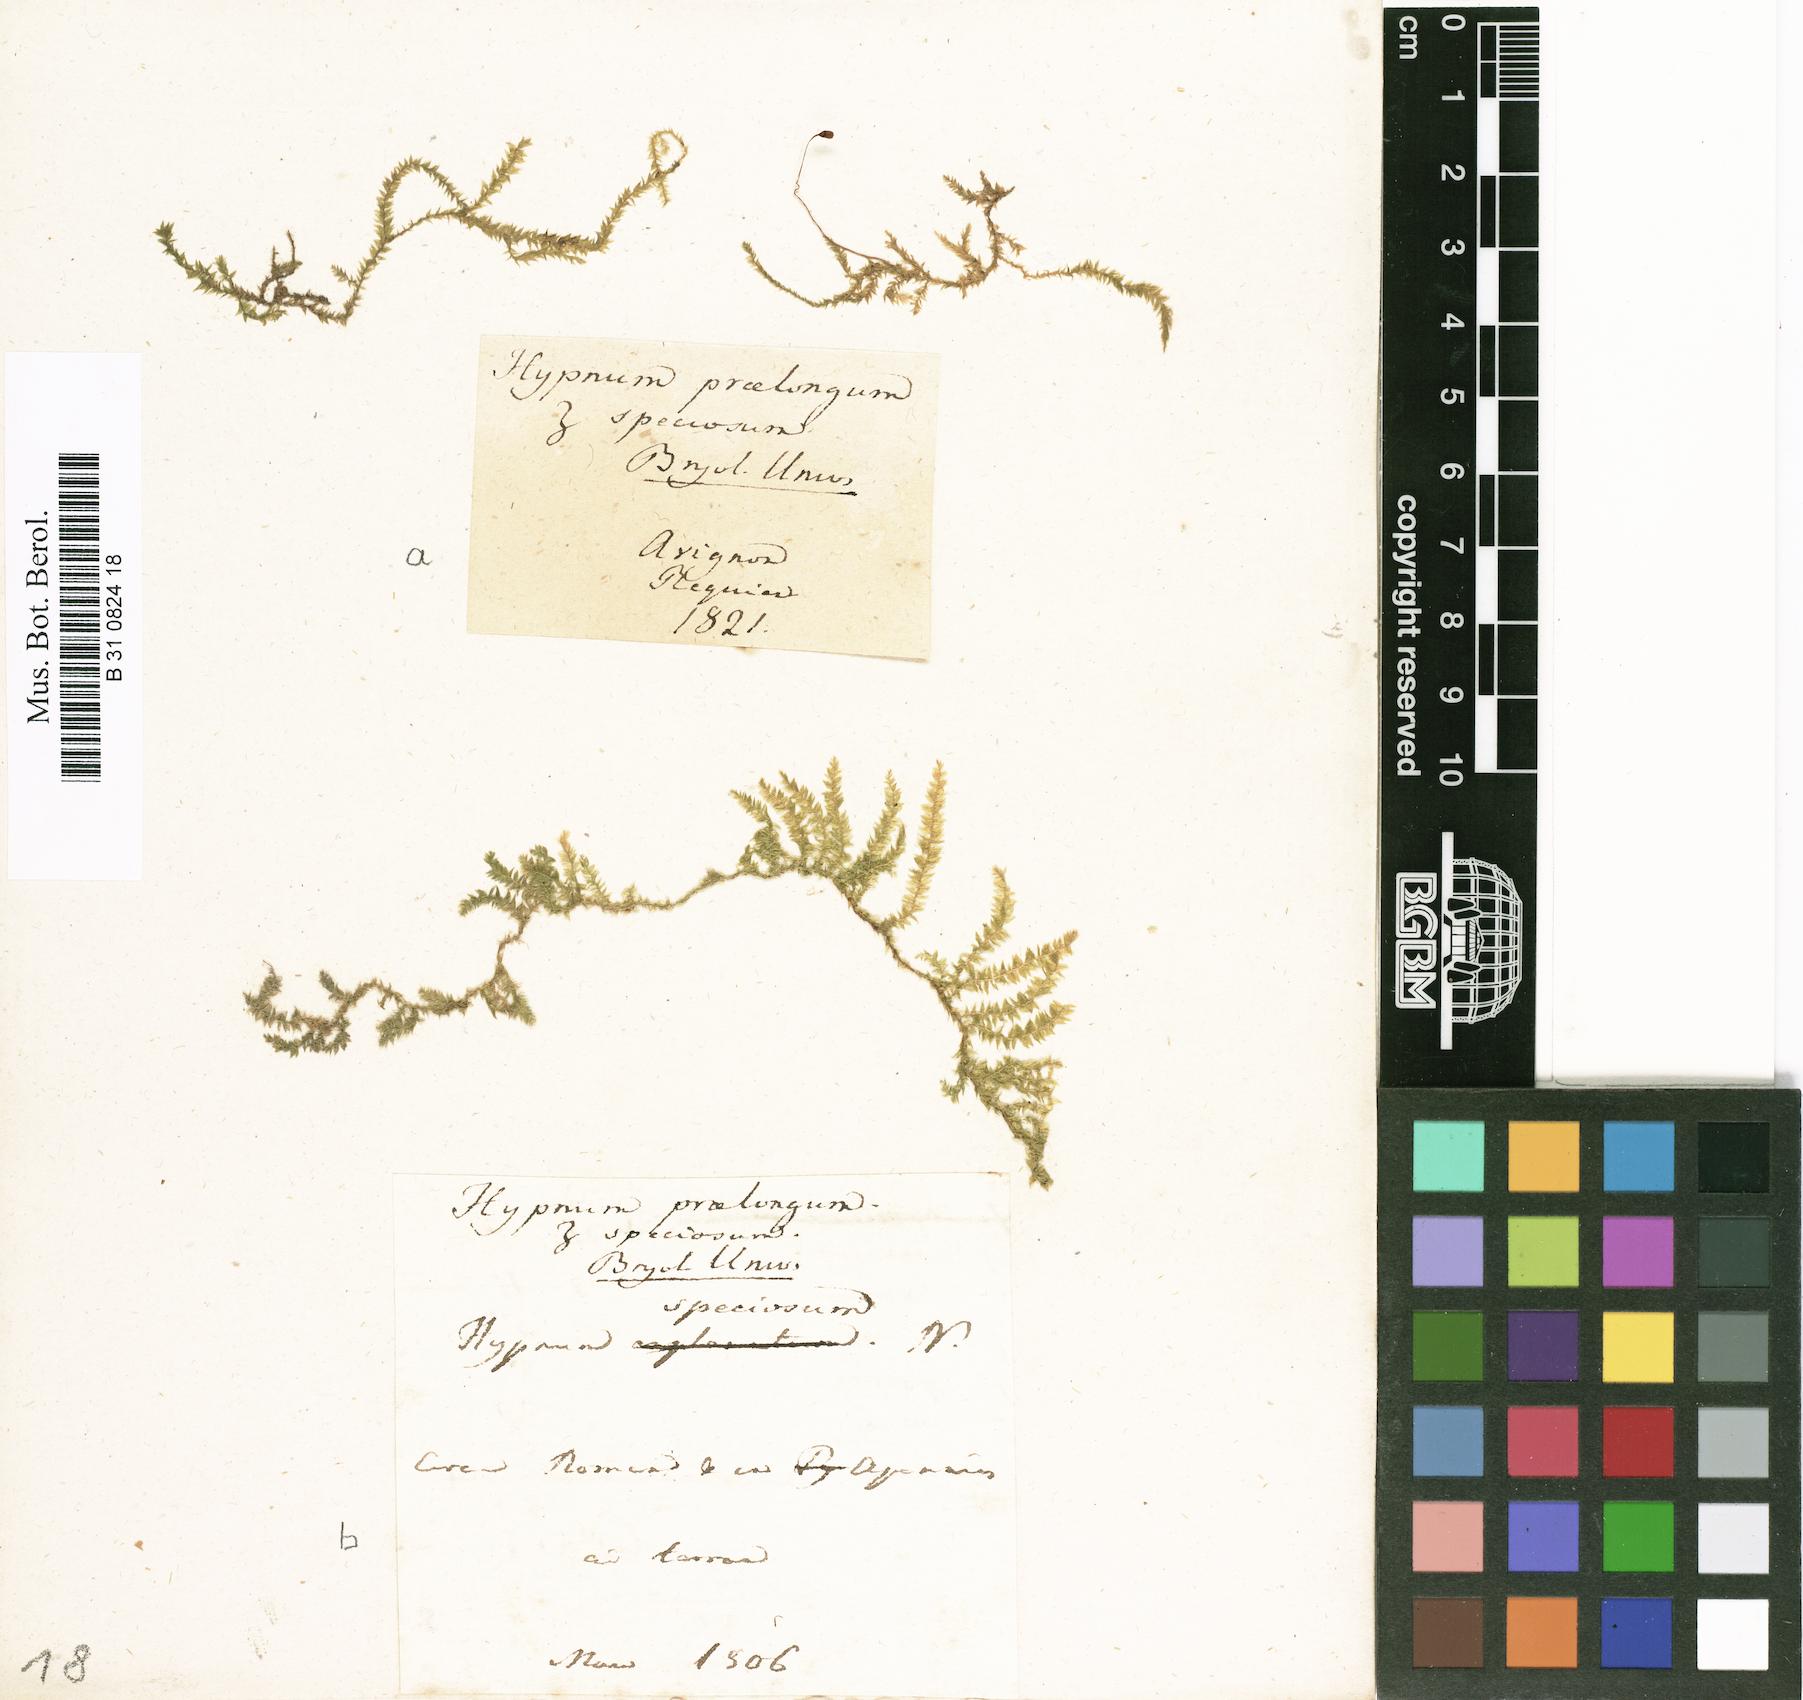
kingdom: Plantae
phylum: Bryophyta
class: Bryopsida
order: Hypnales
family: Brachytheciaceae
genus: Kindbergia
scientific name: Kindbergia praelonga
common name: Slender beaked moss
